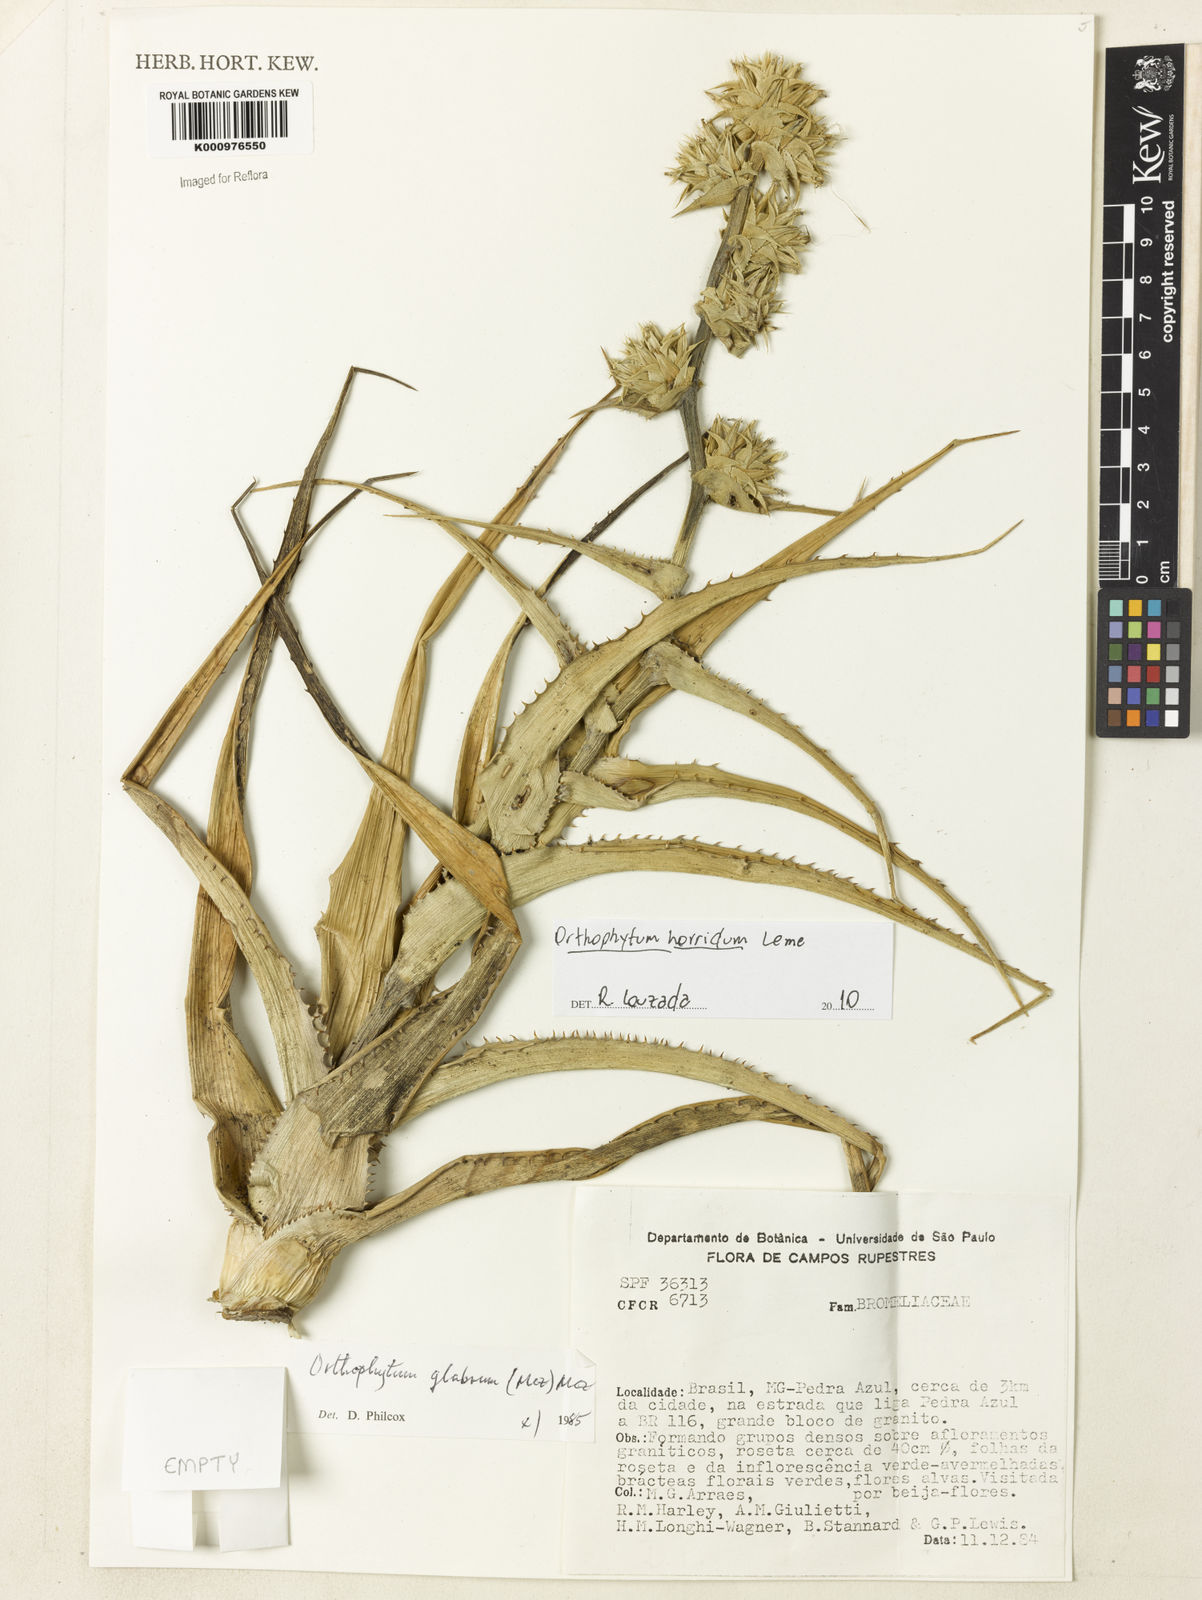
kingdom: Plantae
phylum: Tracheophyta
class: Liliopsida
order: Poales
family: Bromeliaceae
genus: Orthophytum
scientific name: Orthophytum glabrum
